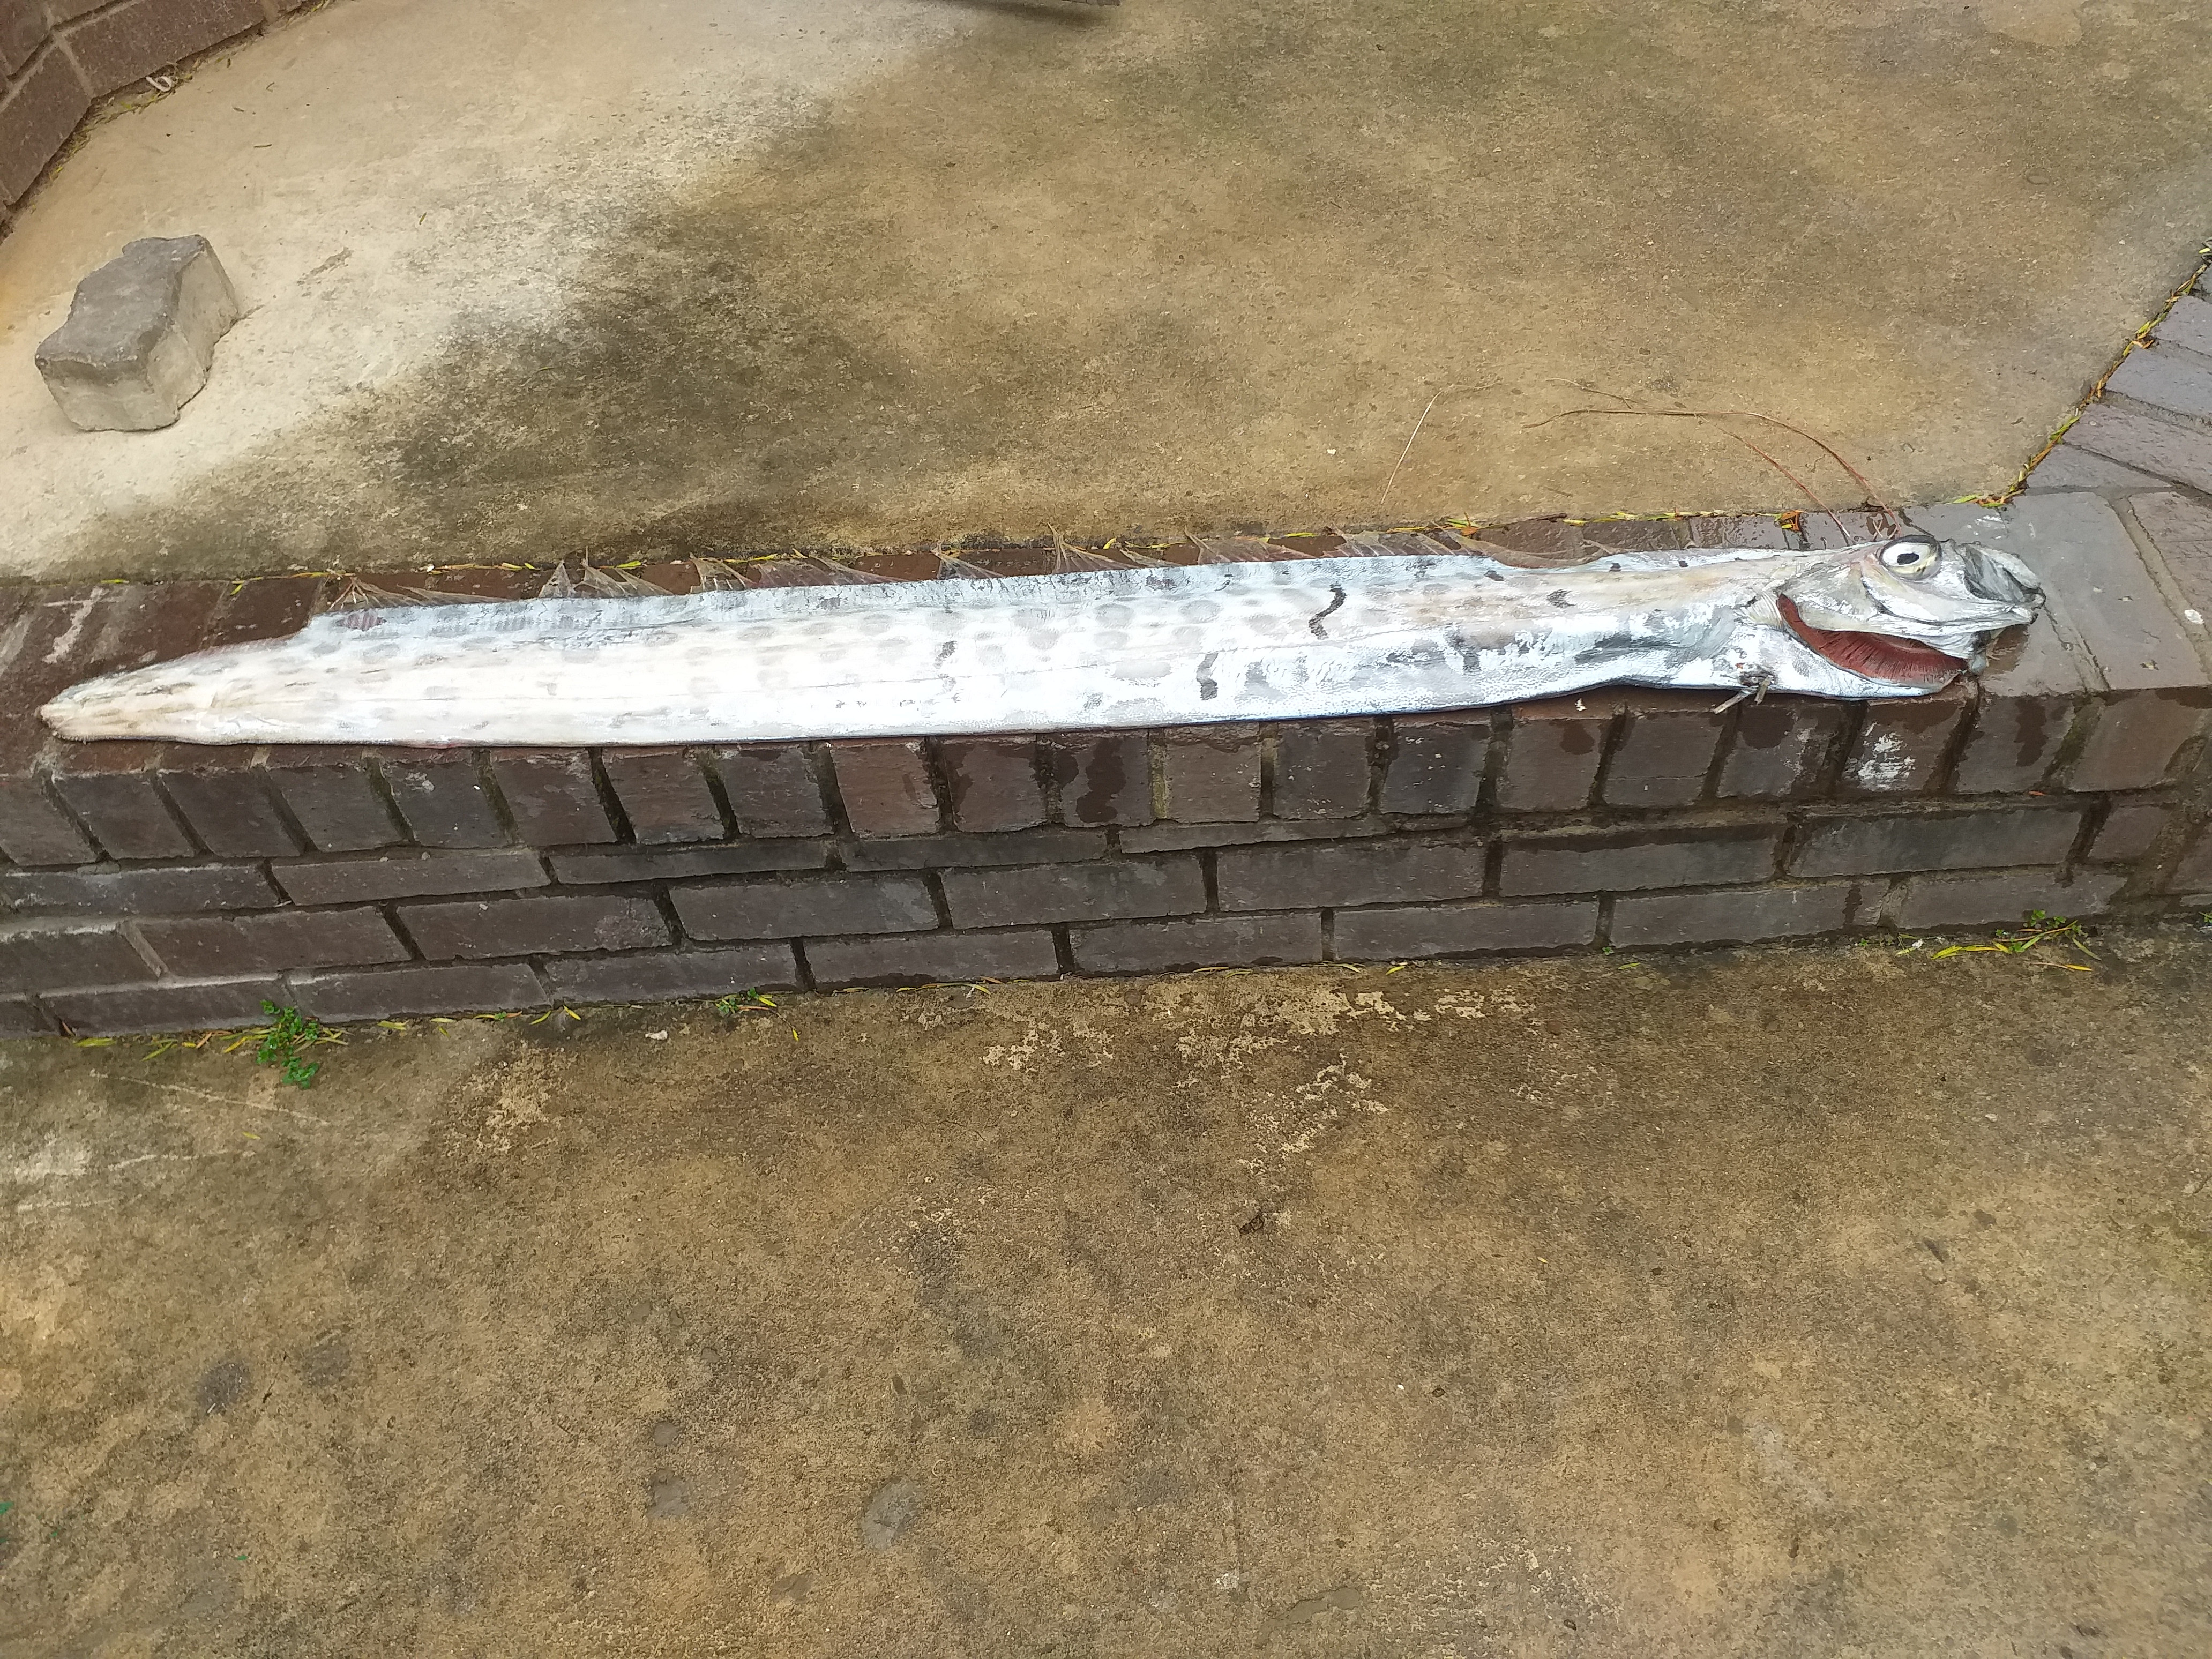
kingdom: Animalia
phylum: Chordata
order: Lampriformes
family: Regalecidae
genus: Regalecus
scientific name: Regalecus
